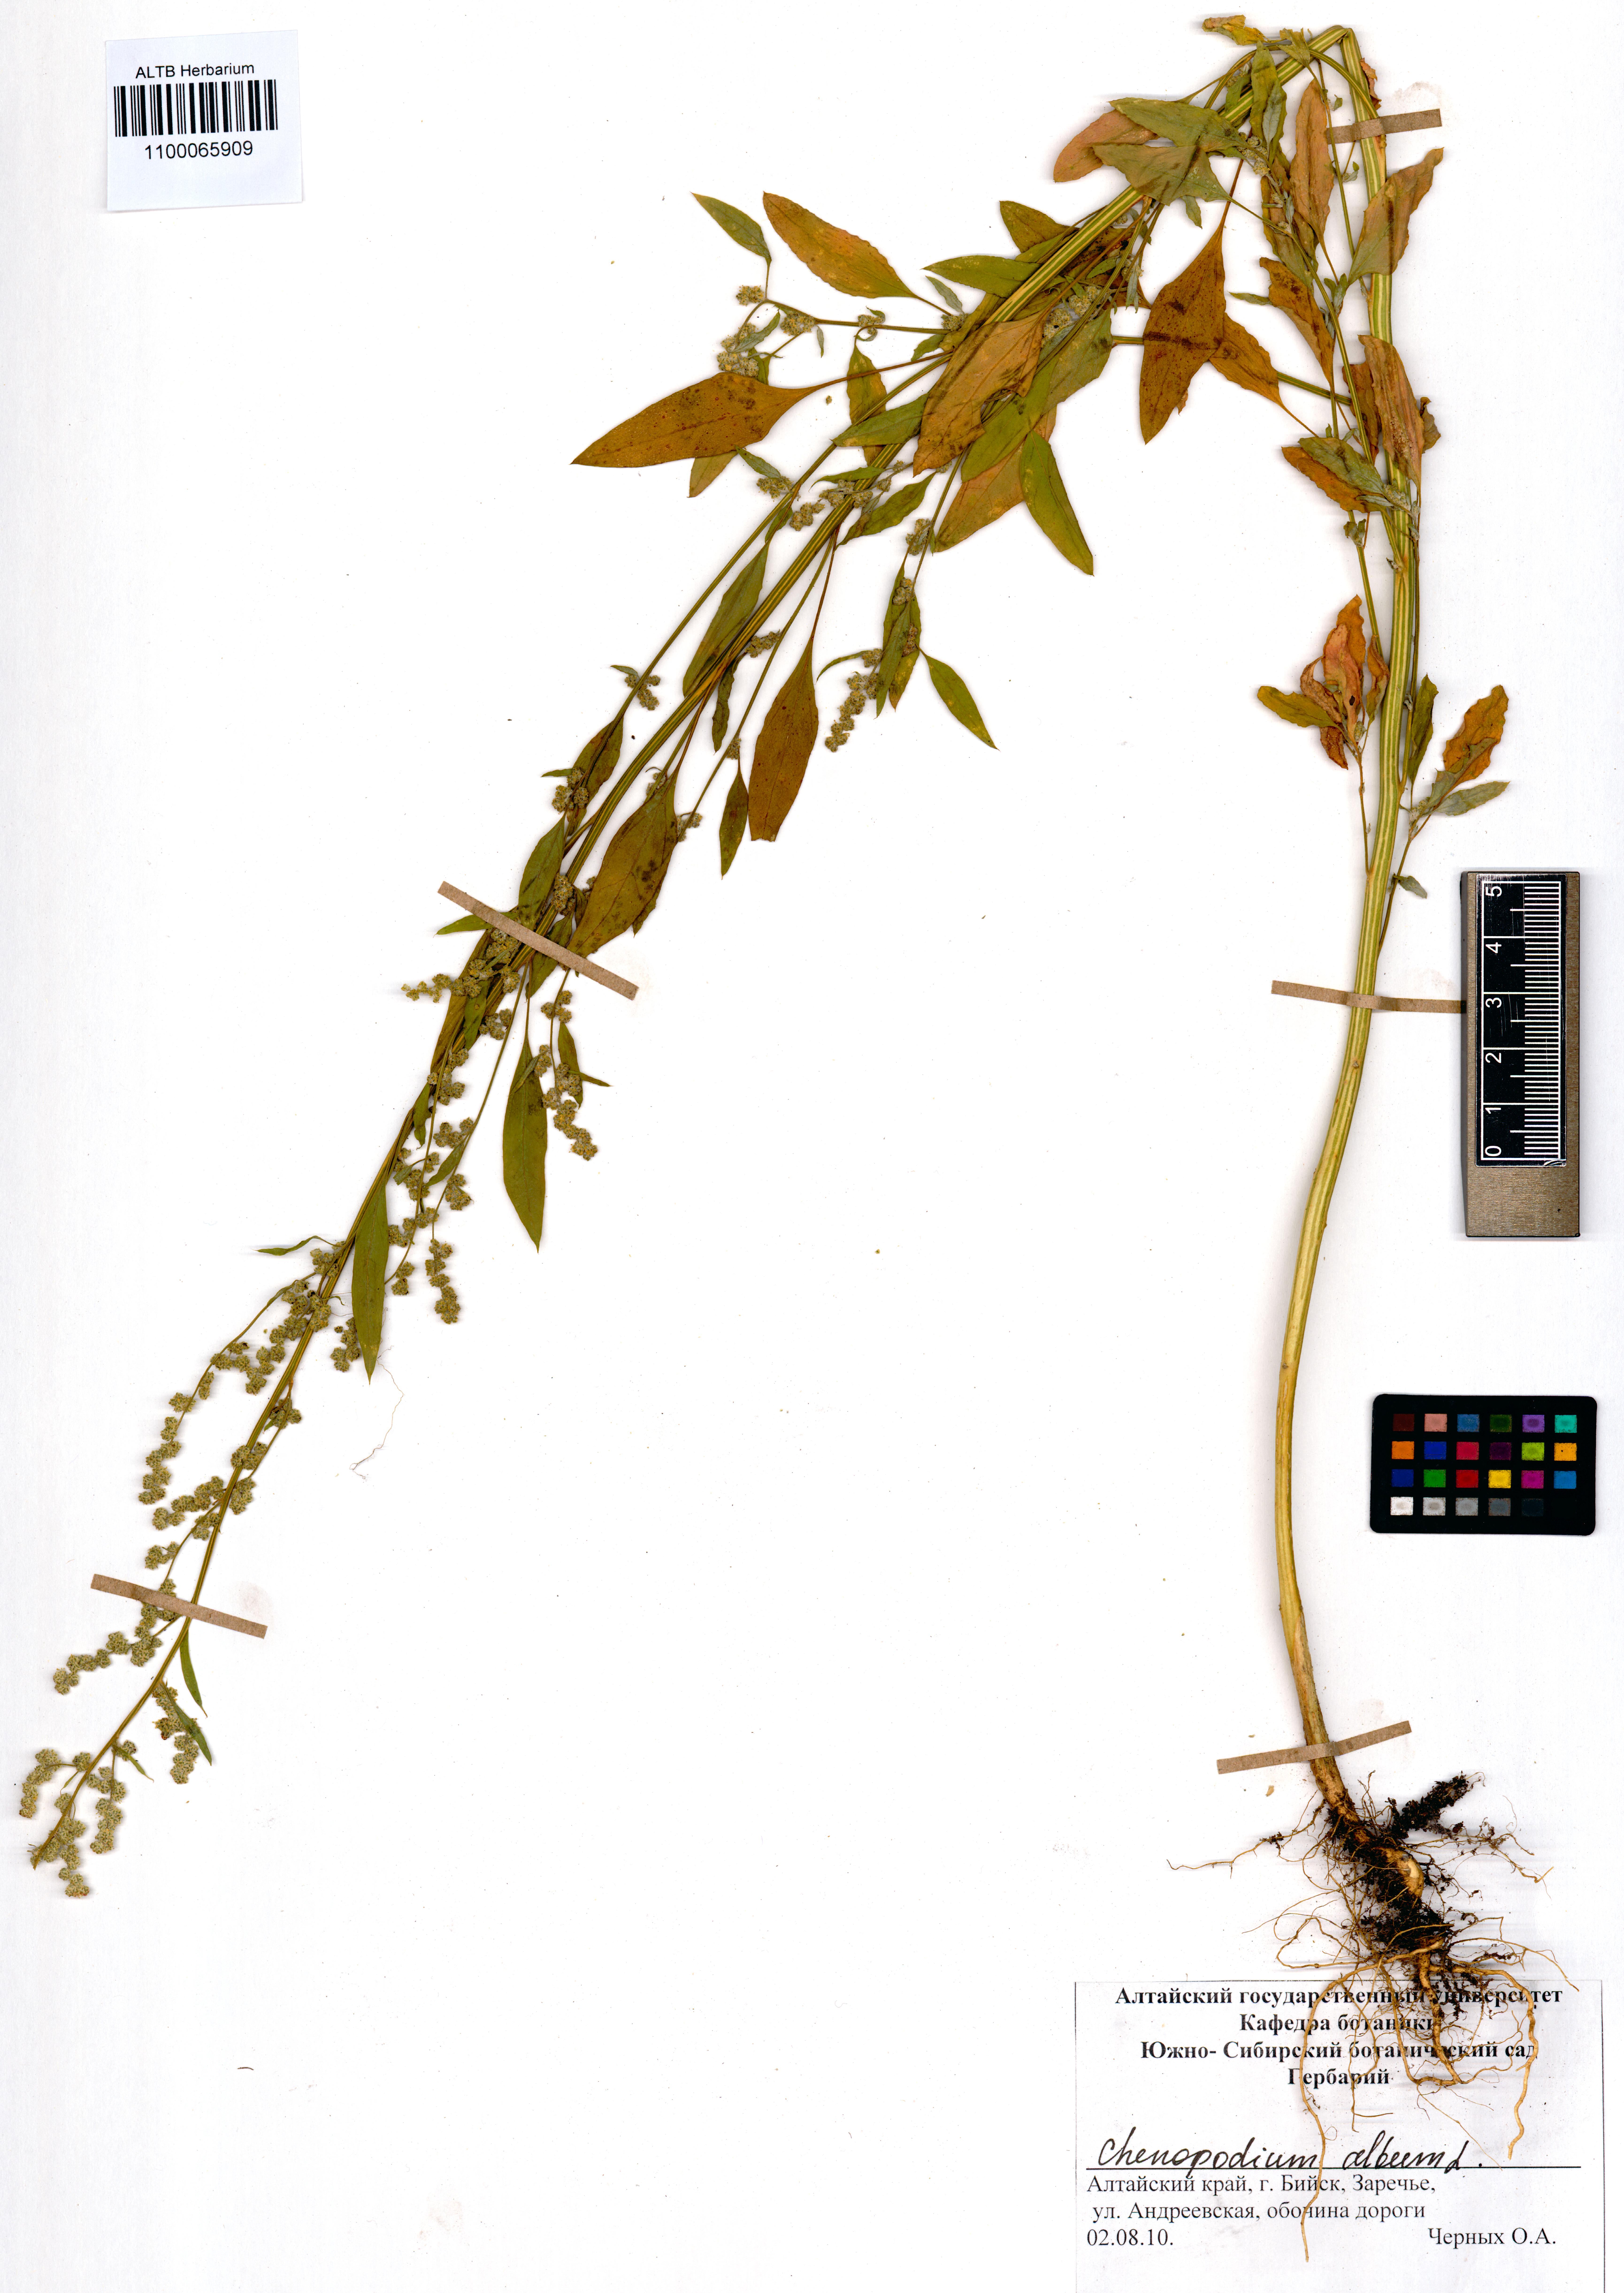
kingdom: Plantae
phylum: Tracheophyta
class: Magnoliopsida
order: Caryophyllales
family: Amaranthaceae
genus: Chenopodium
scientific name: Chenopodium album
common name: Fat-hen
